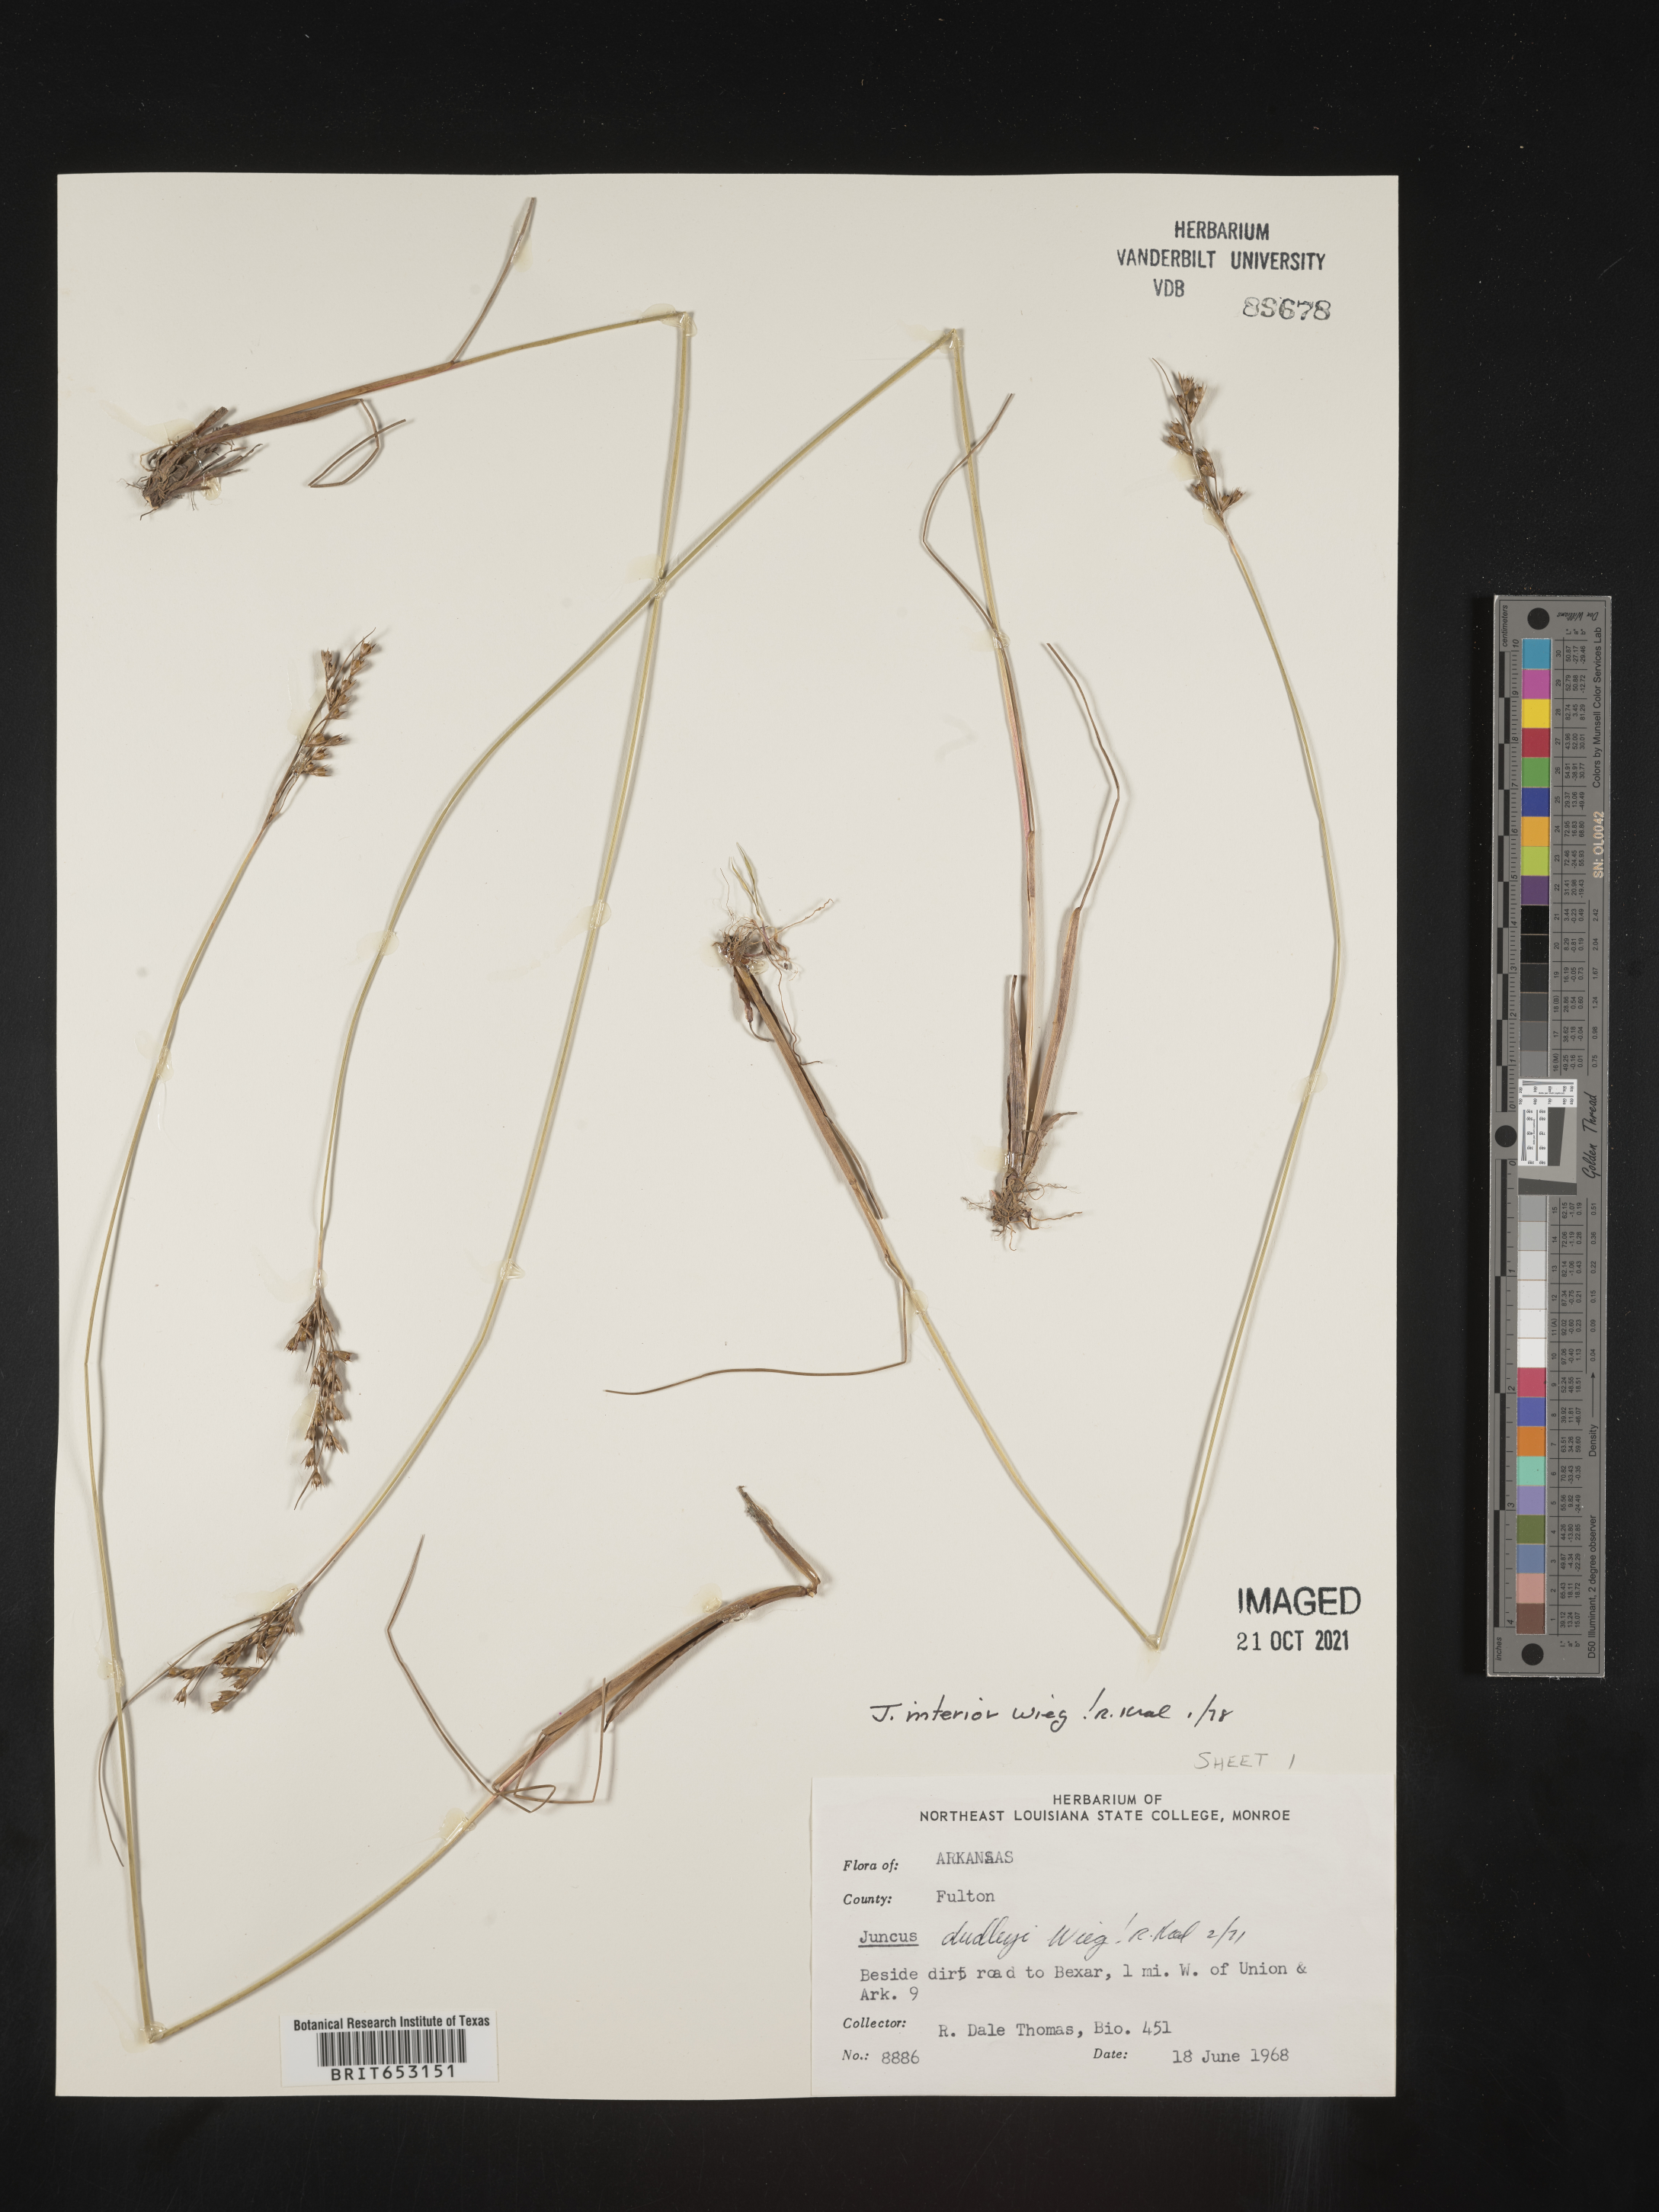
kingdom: Plantae
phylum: Tracheophyta
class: Liliopsida
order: Poales
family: Juncaceae
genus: Juncus
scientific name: Juncus interior
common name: Interior rush
